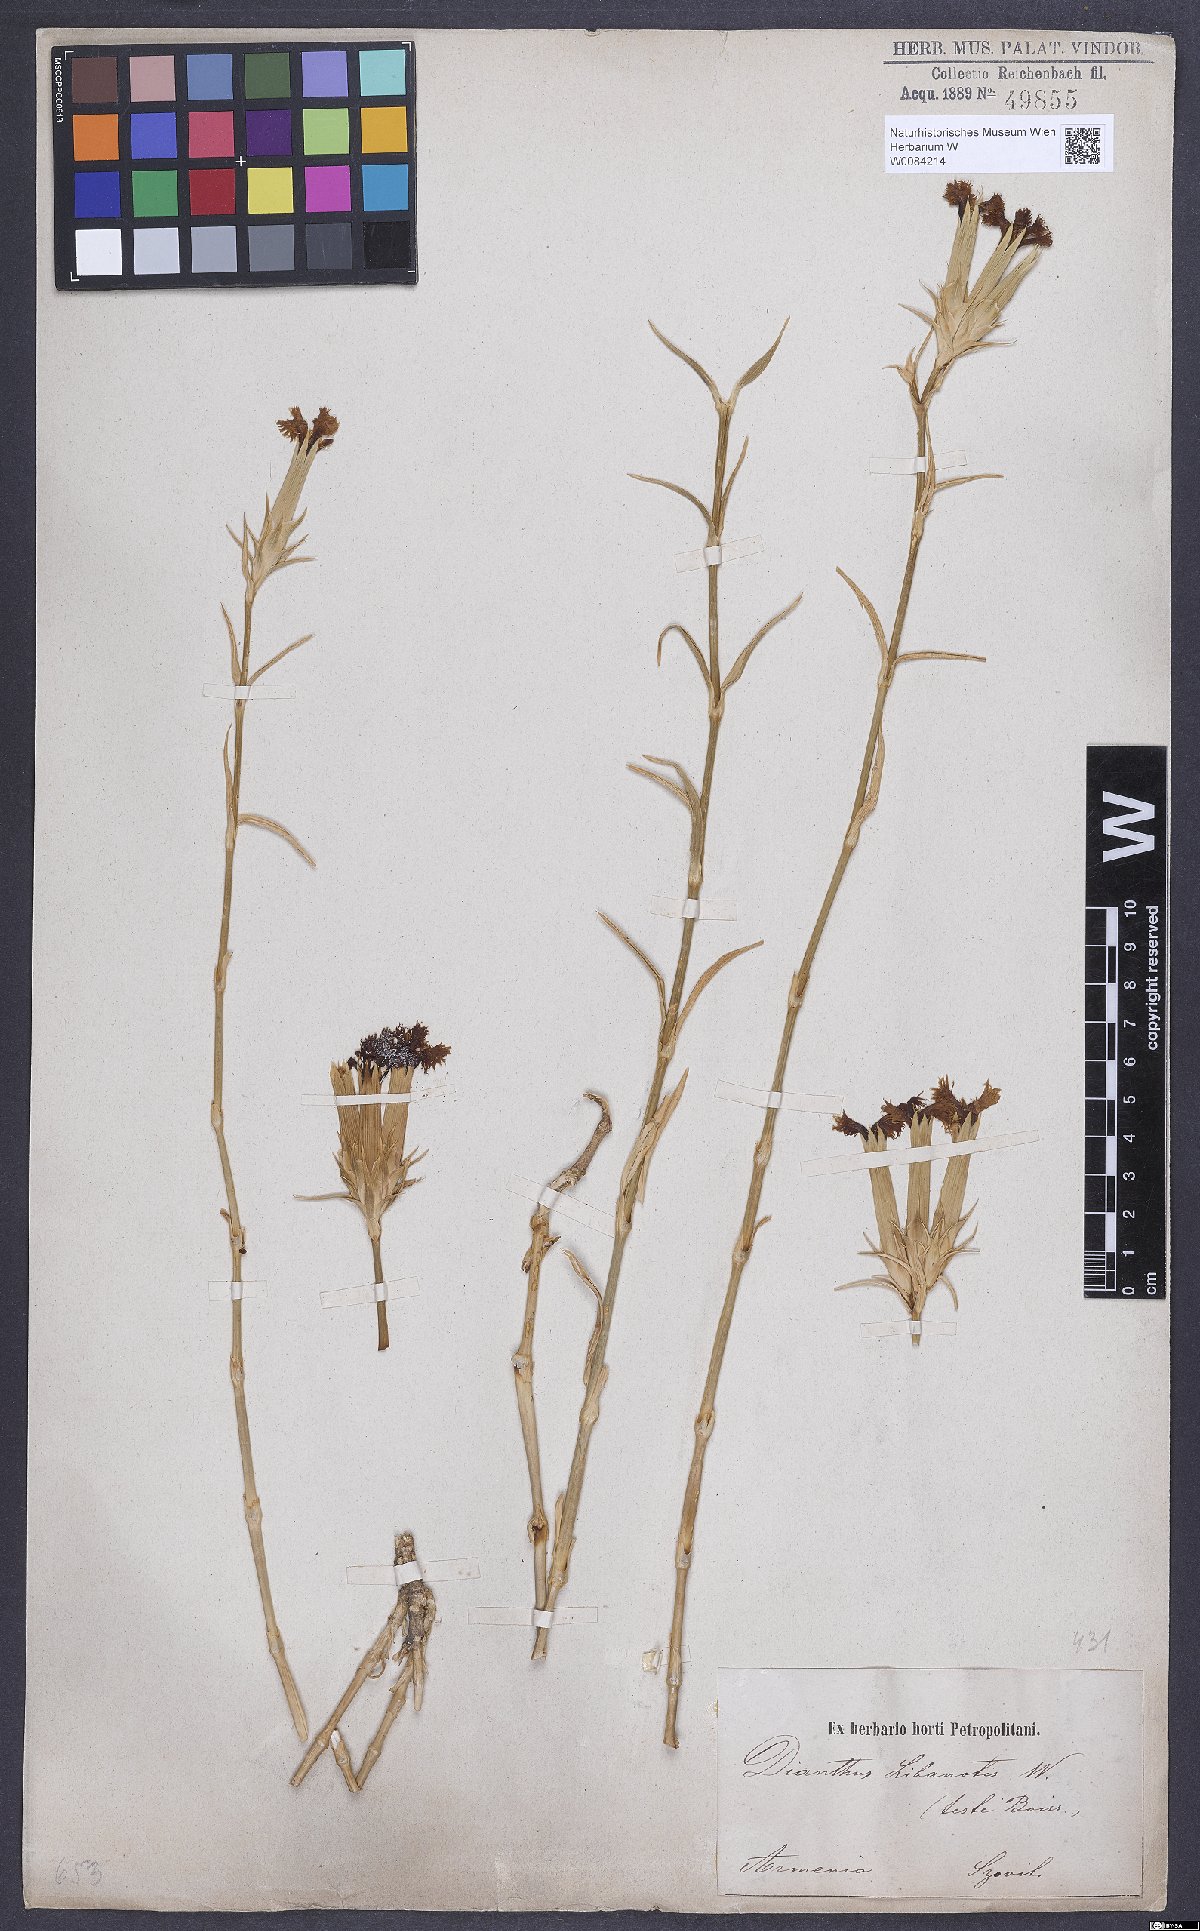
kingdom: Plantae
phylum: Tracheophyta
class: Magnoliopsida
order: Caryophyllales
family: Caryophyllaceae
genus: Dianthus
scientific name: Dianthus libanotis
